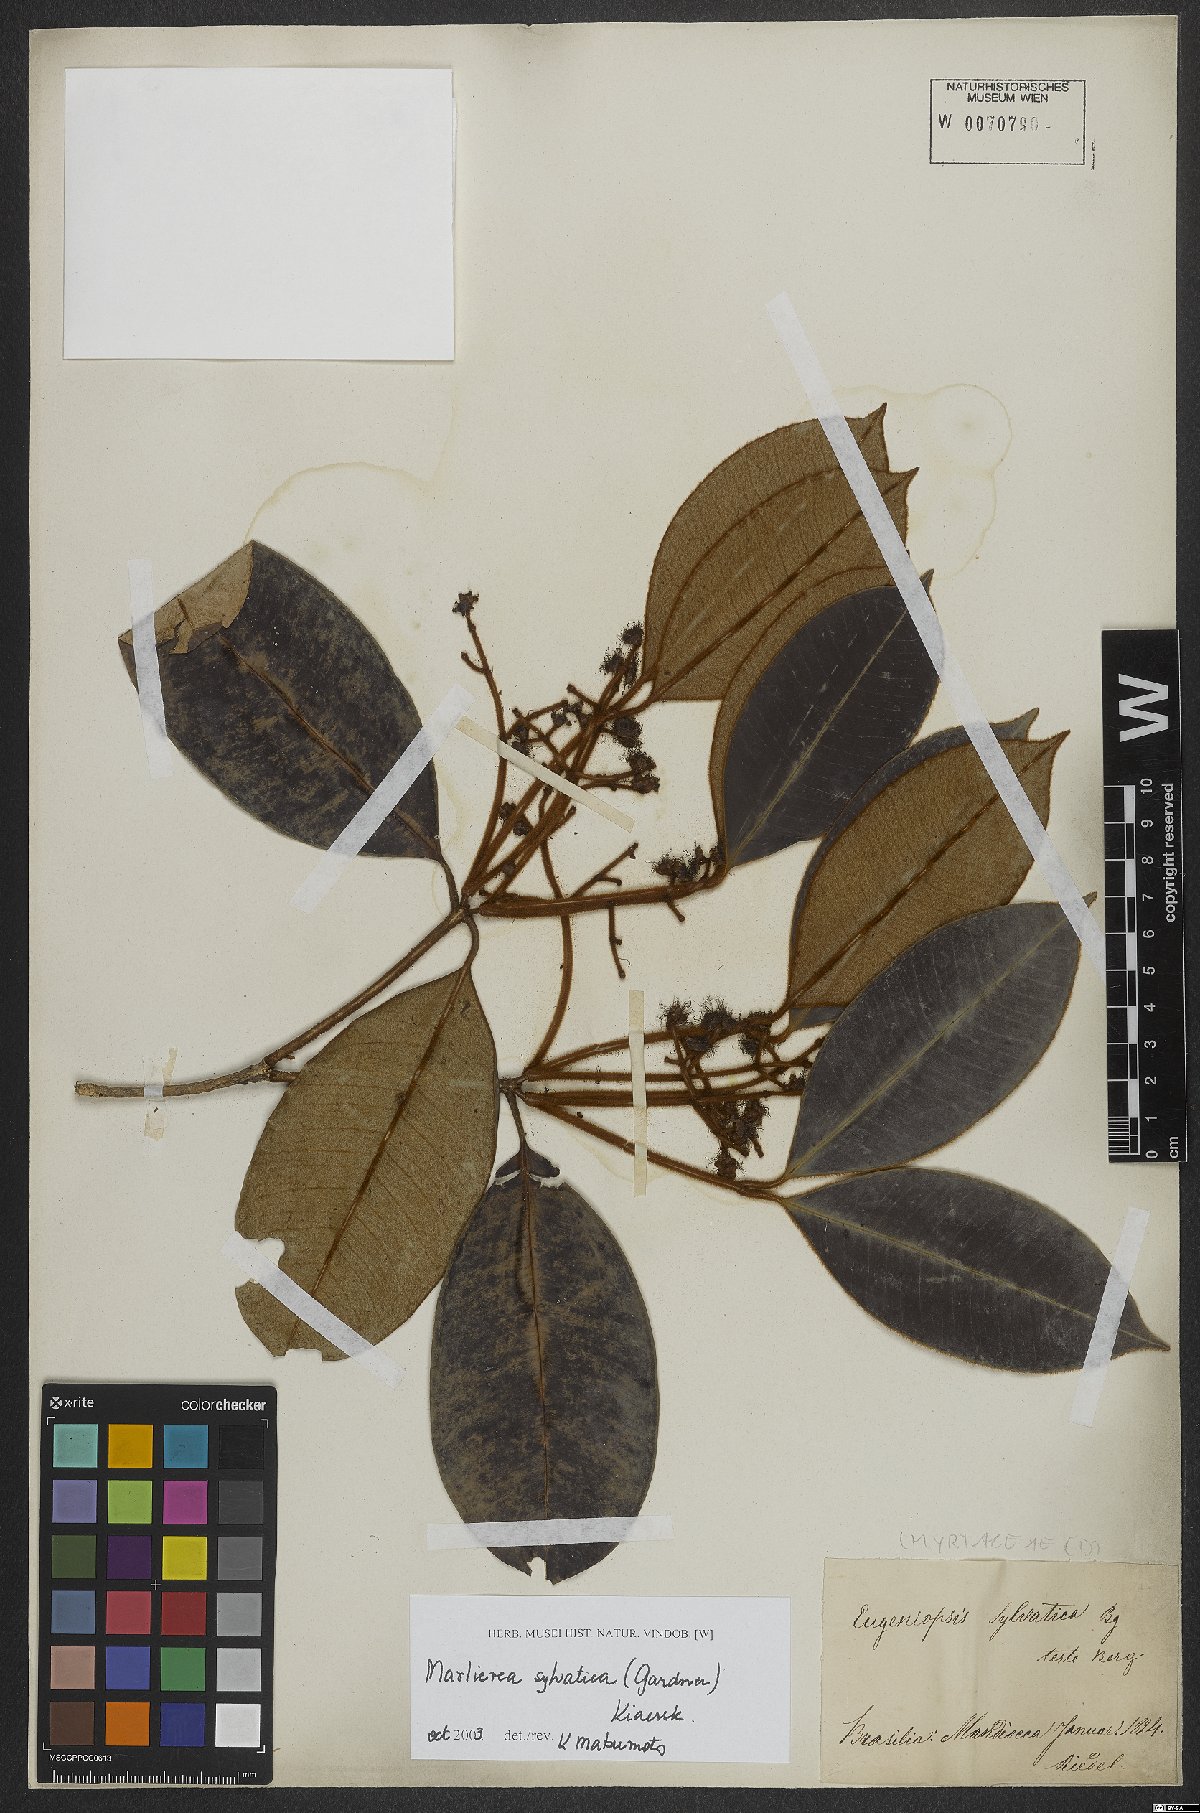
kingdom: Plantae
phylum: Tracheophyta
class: Magnoliopsida
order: Myrtales
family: Myrtaceae
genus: Myrcia
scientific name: Myrcia ferruginosa
